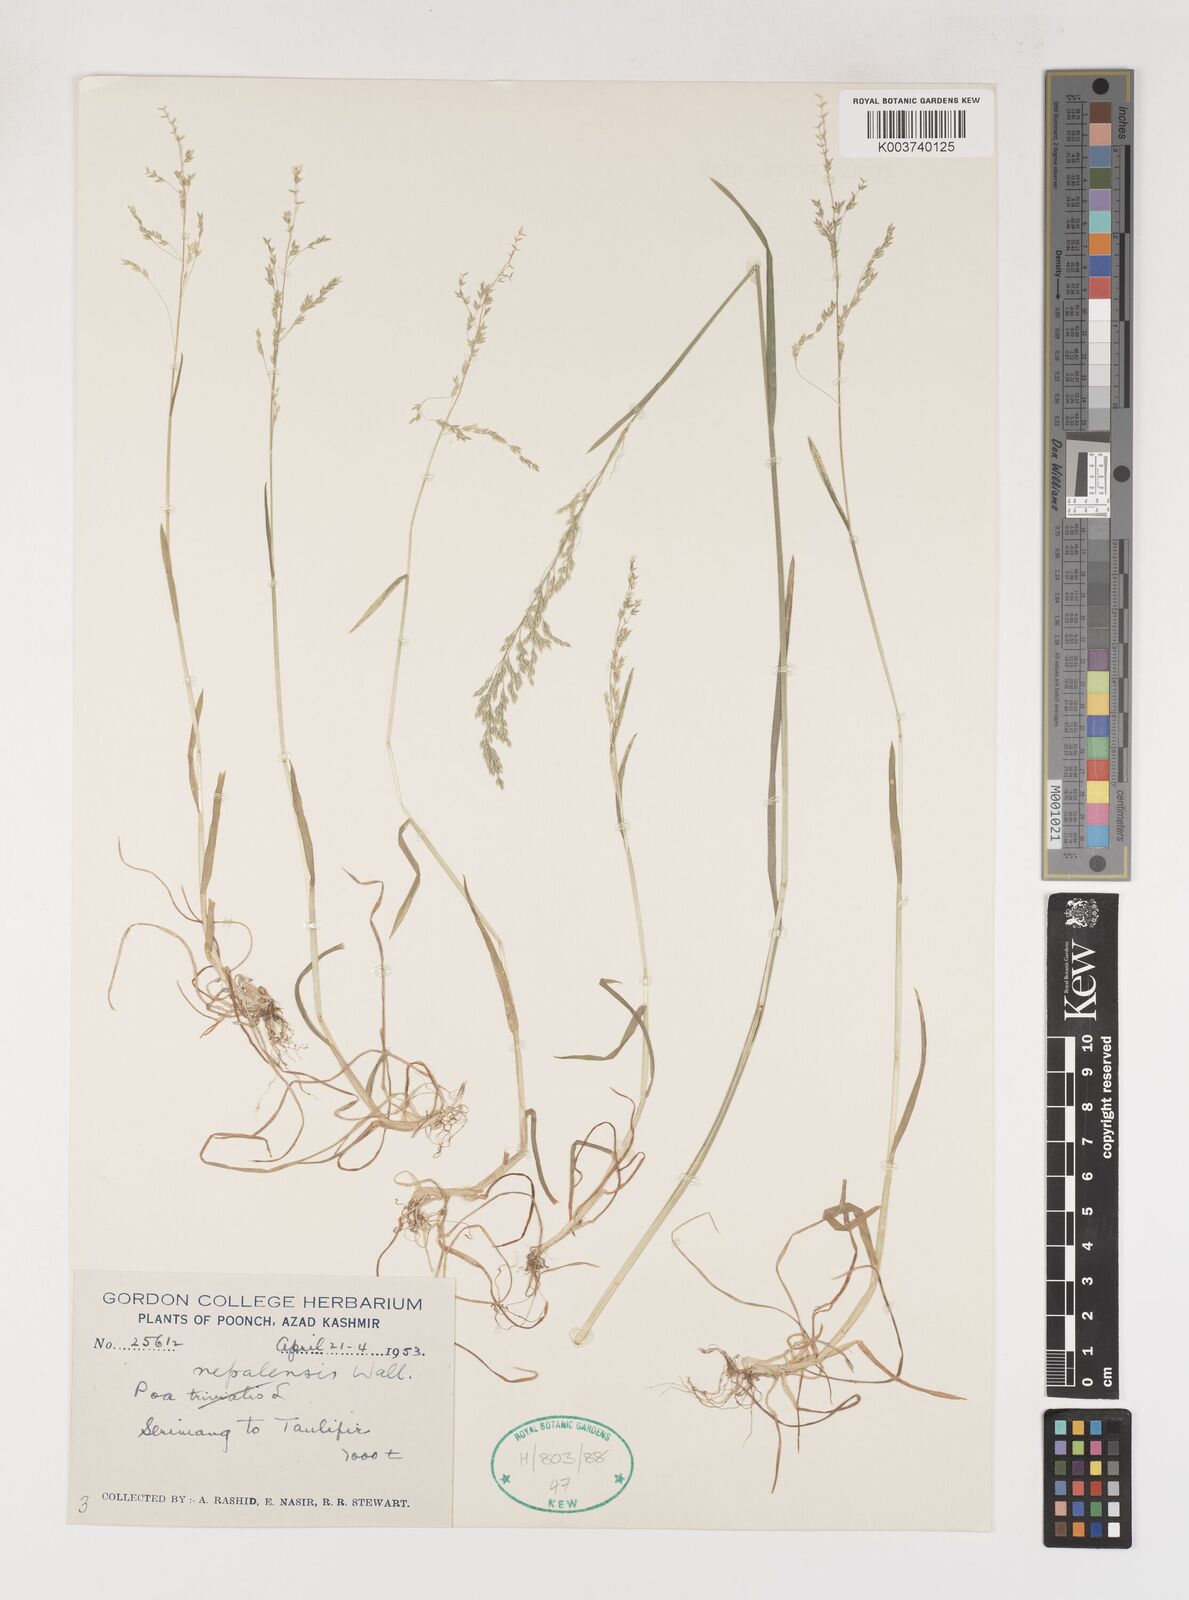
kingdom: Plantae
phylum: Tracheophyta
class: Liliopsida
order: Poales
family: Poaceae
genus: Poa
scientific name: Poa nepalensis
